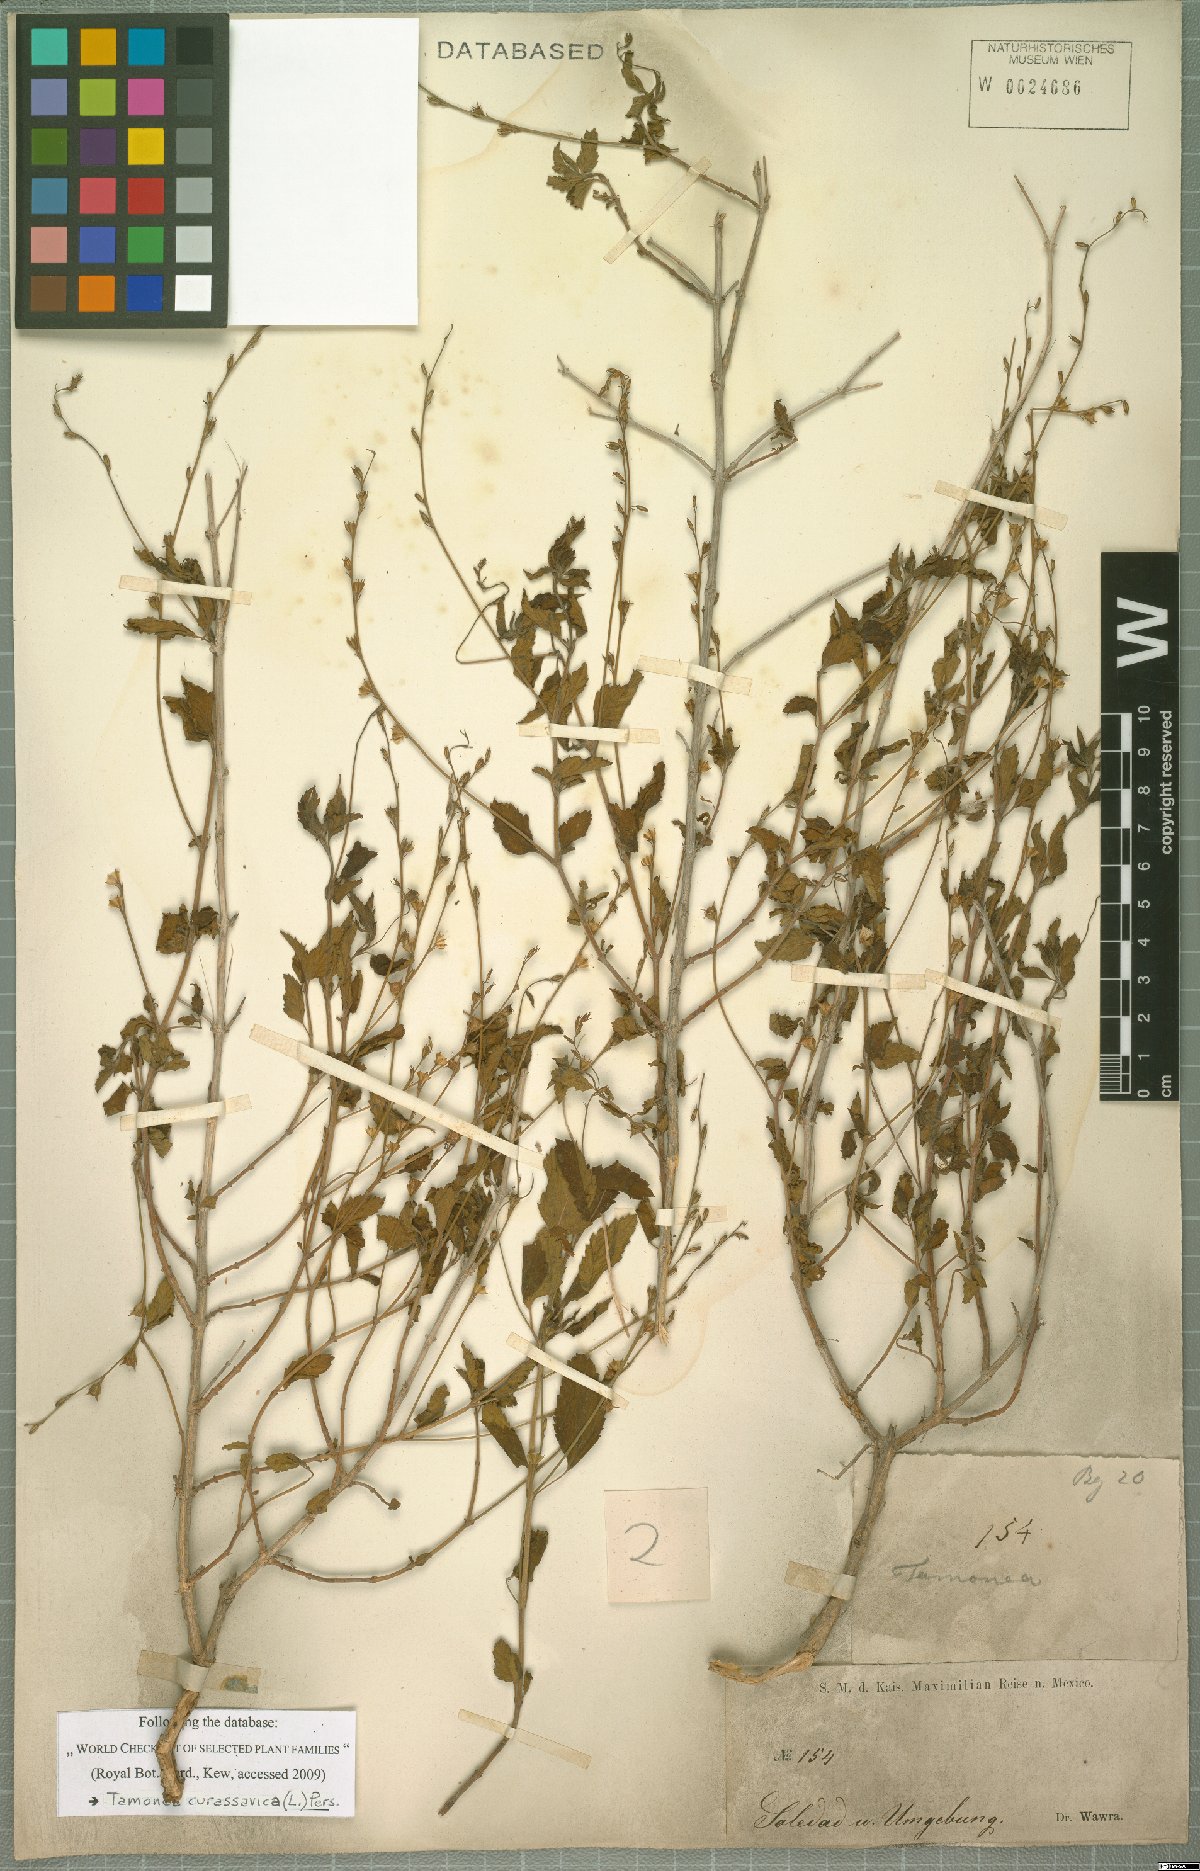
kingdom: Plantae
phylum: Tracheophyta
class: Magnoliopsida
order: Lamiales
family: Verbenaceae
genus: Tamonea
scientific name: Tamonea curassavica
